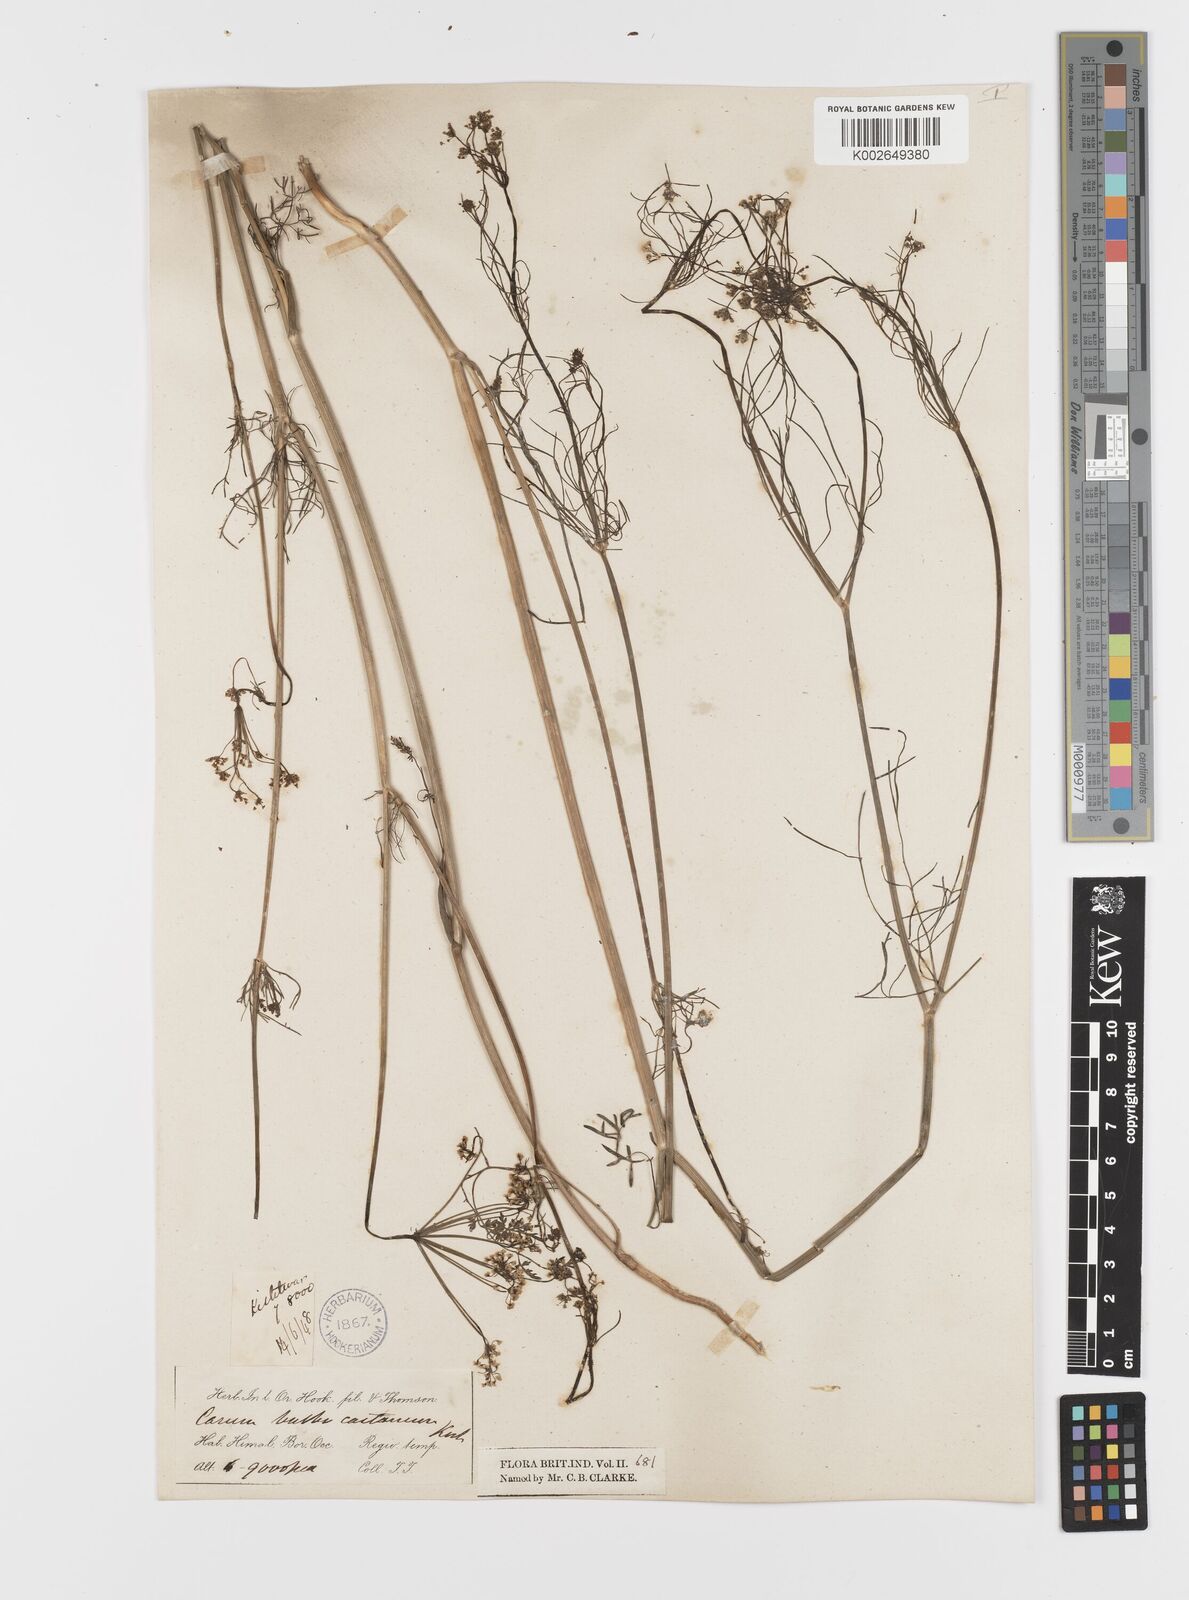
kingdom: Plantae
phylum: Tracheophyta
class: Magnoliopsida
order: Apiales
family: Apiaceae
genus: Bunium
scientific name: Bunium bulbocastanum
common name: Great pignut
